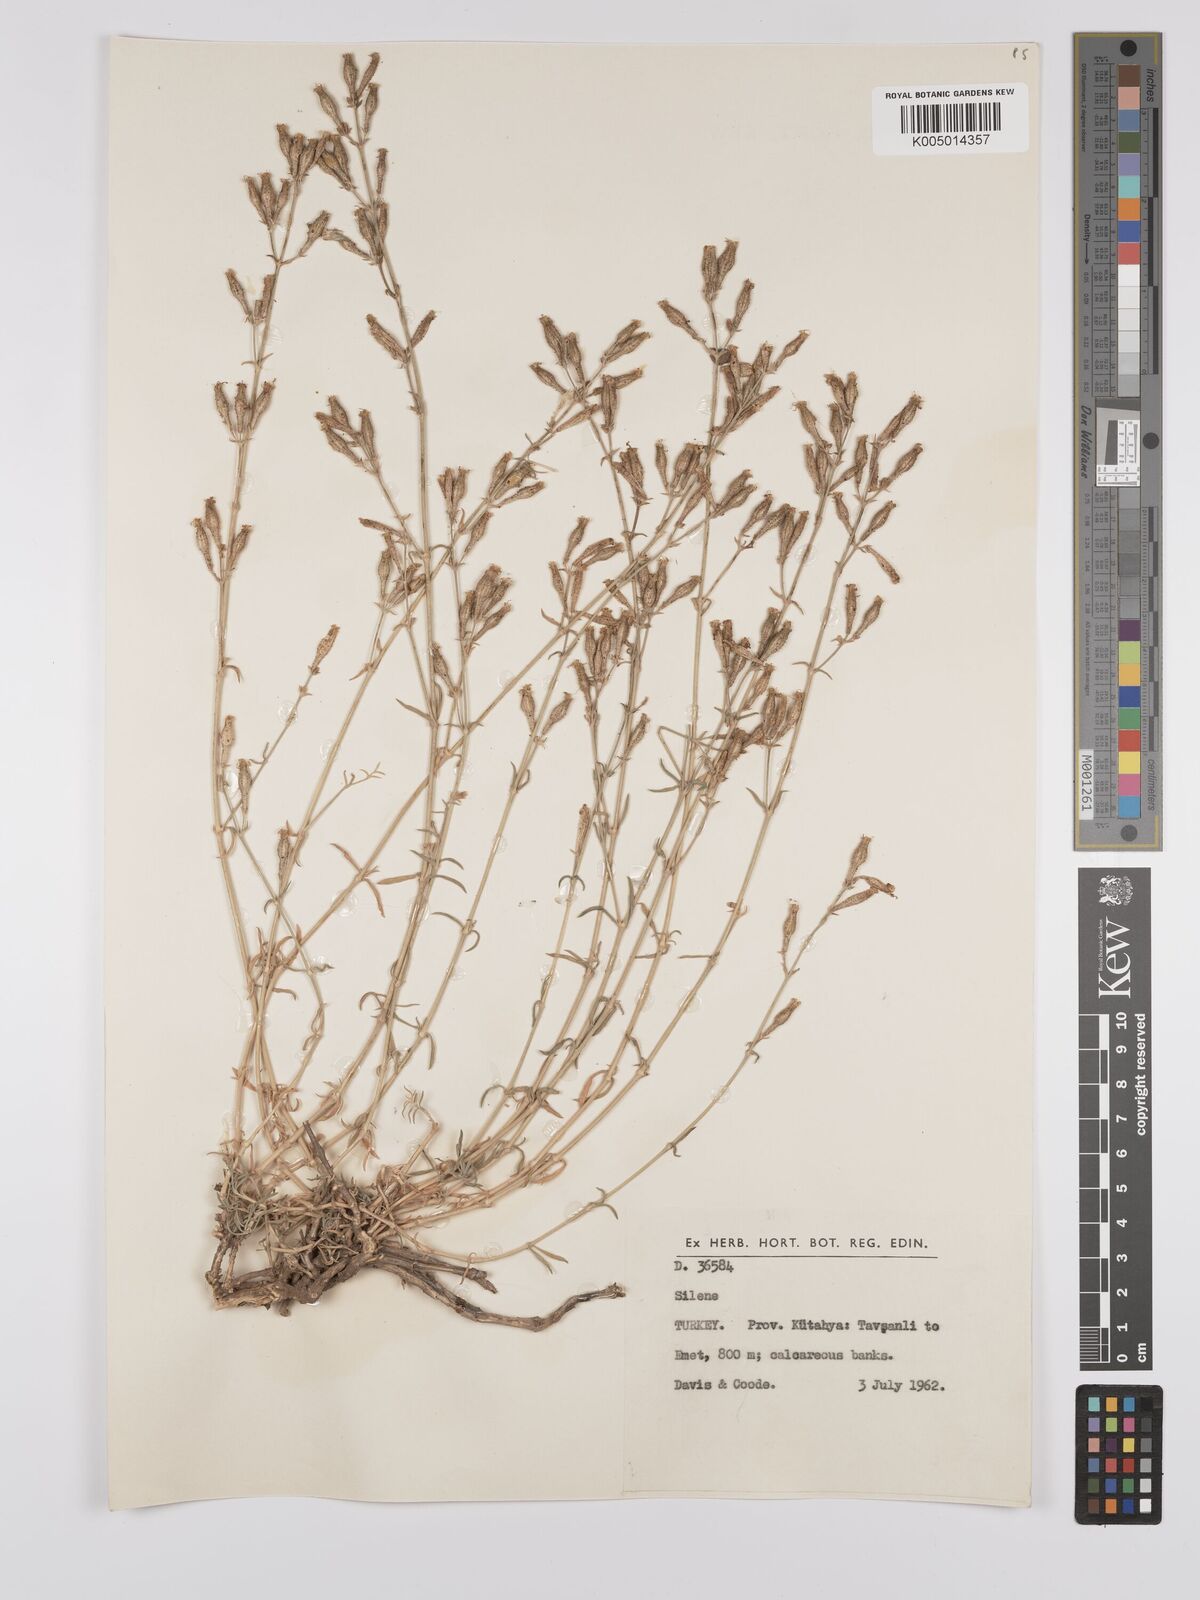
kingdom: Plantae
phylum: Tracheophyta
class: Magnoliopsida
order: Caryophyllales
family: Caryophyllaceae
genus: Silene
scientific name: Silene
